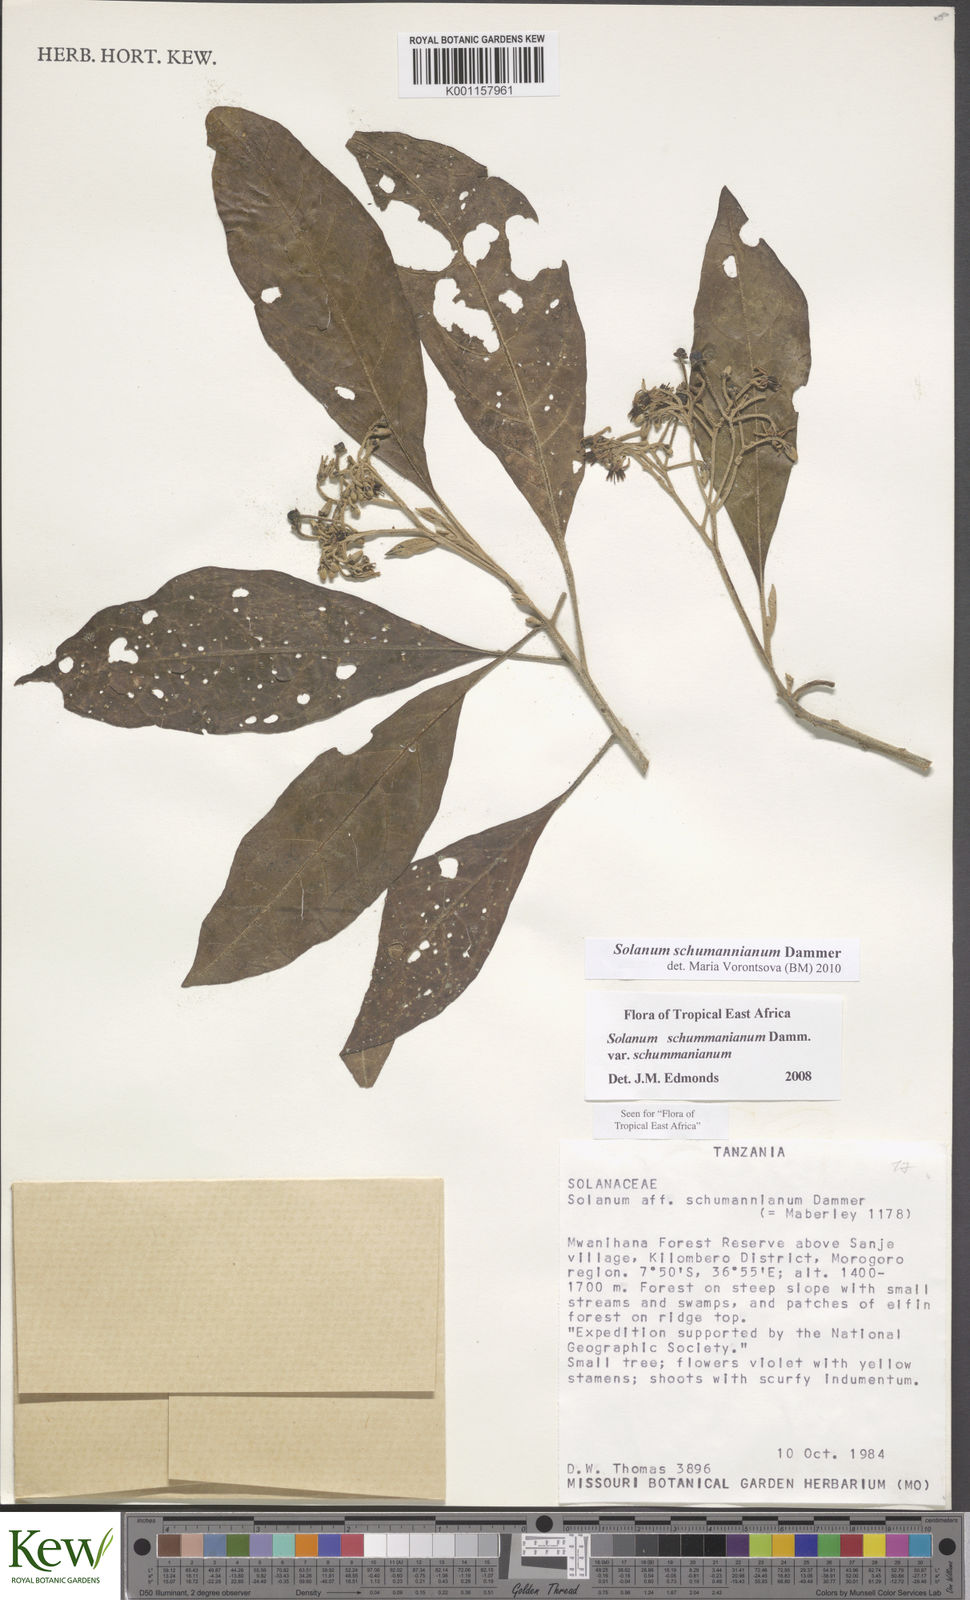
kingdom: Plantae
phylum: Tracheophyta
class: Magnoliopsida
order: Solanales
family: Solanaceae
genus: Solanum
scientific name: Solanum schumannianum
